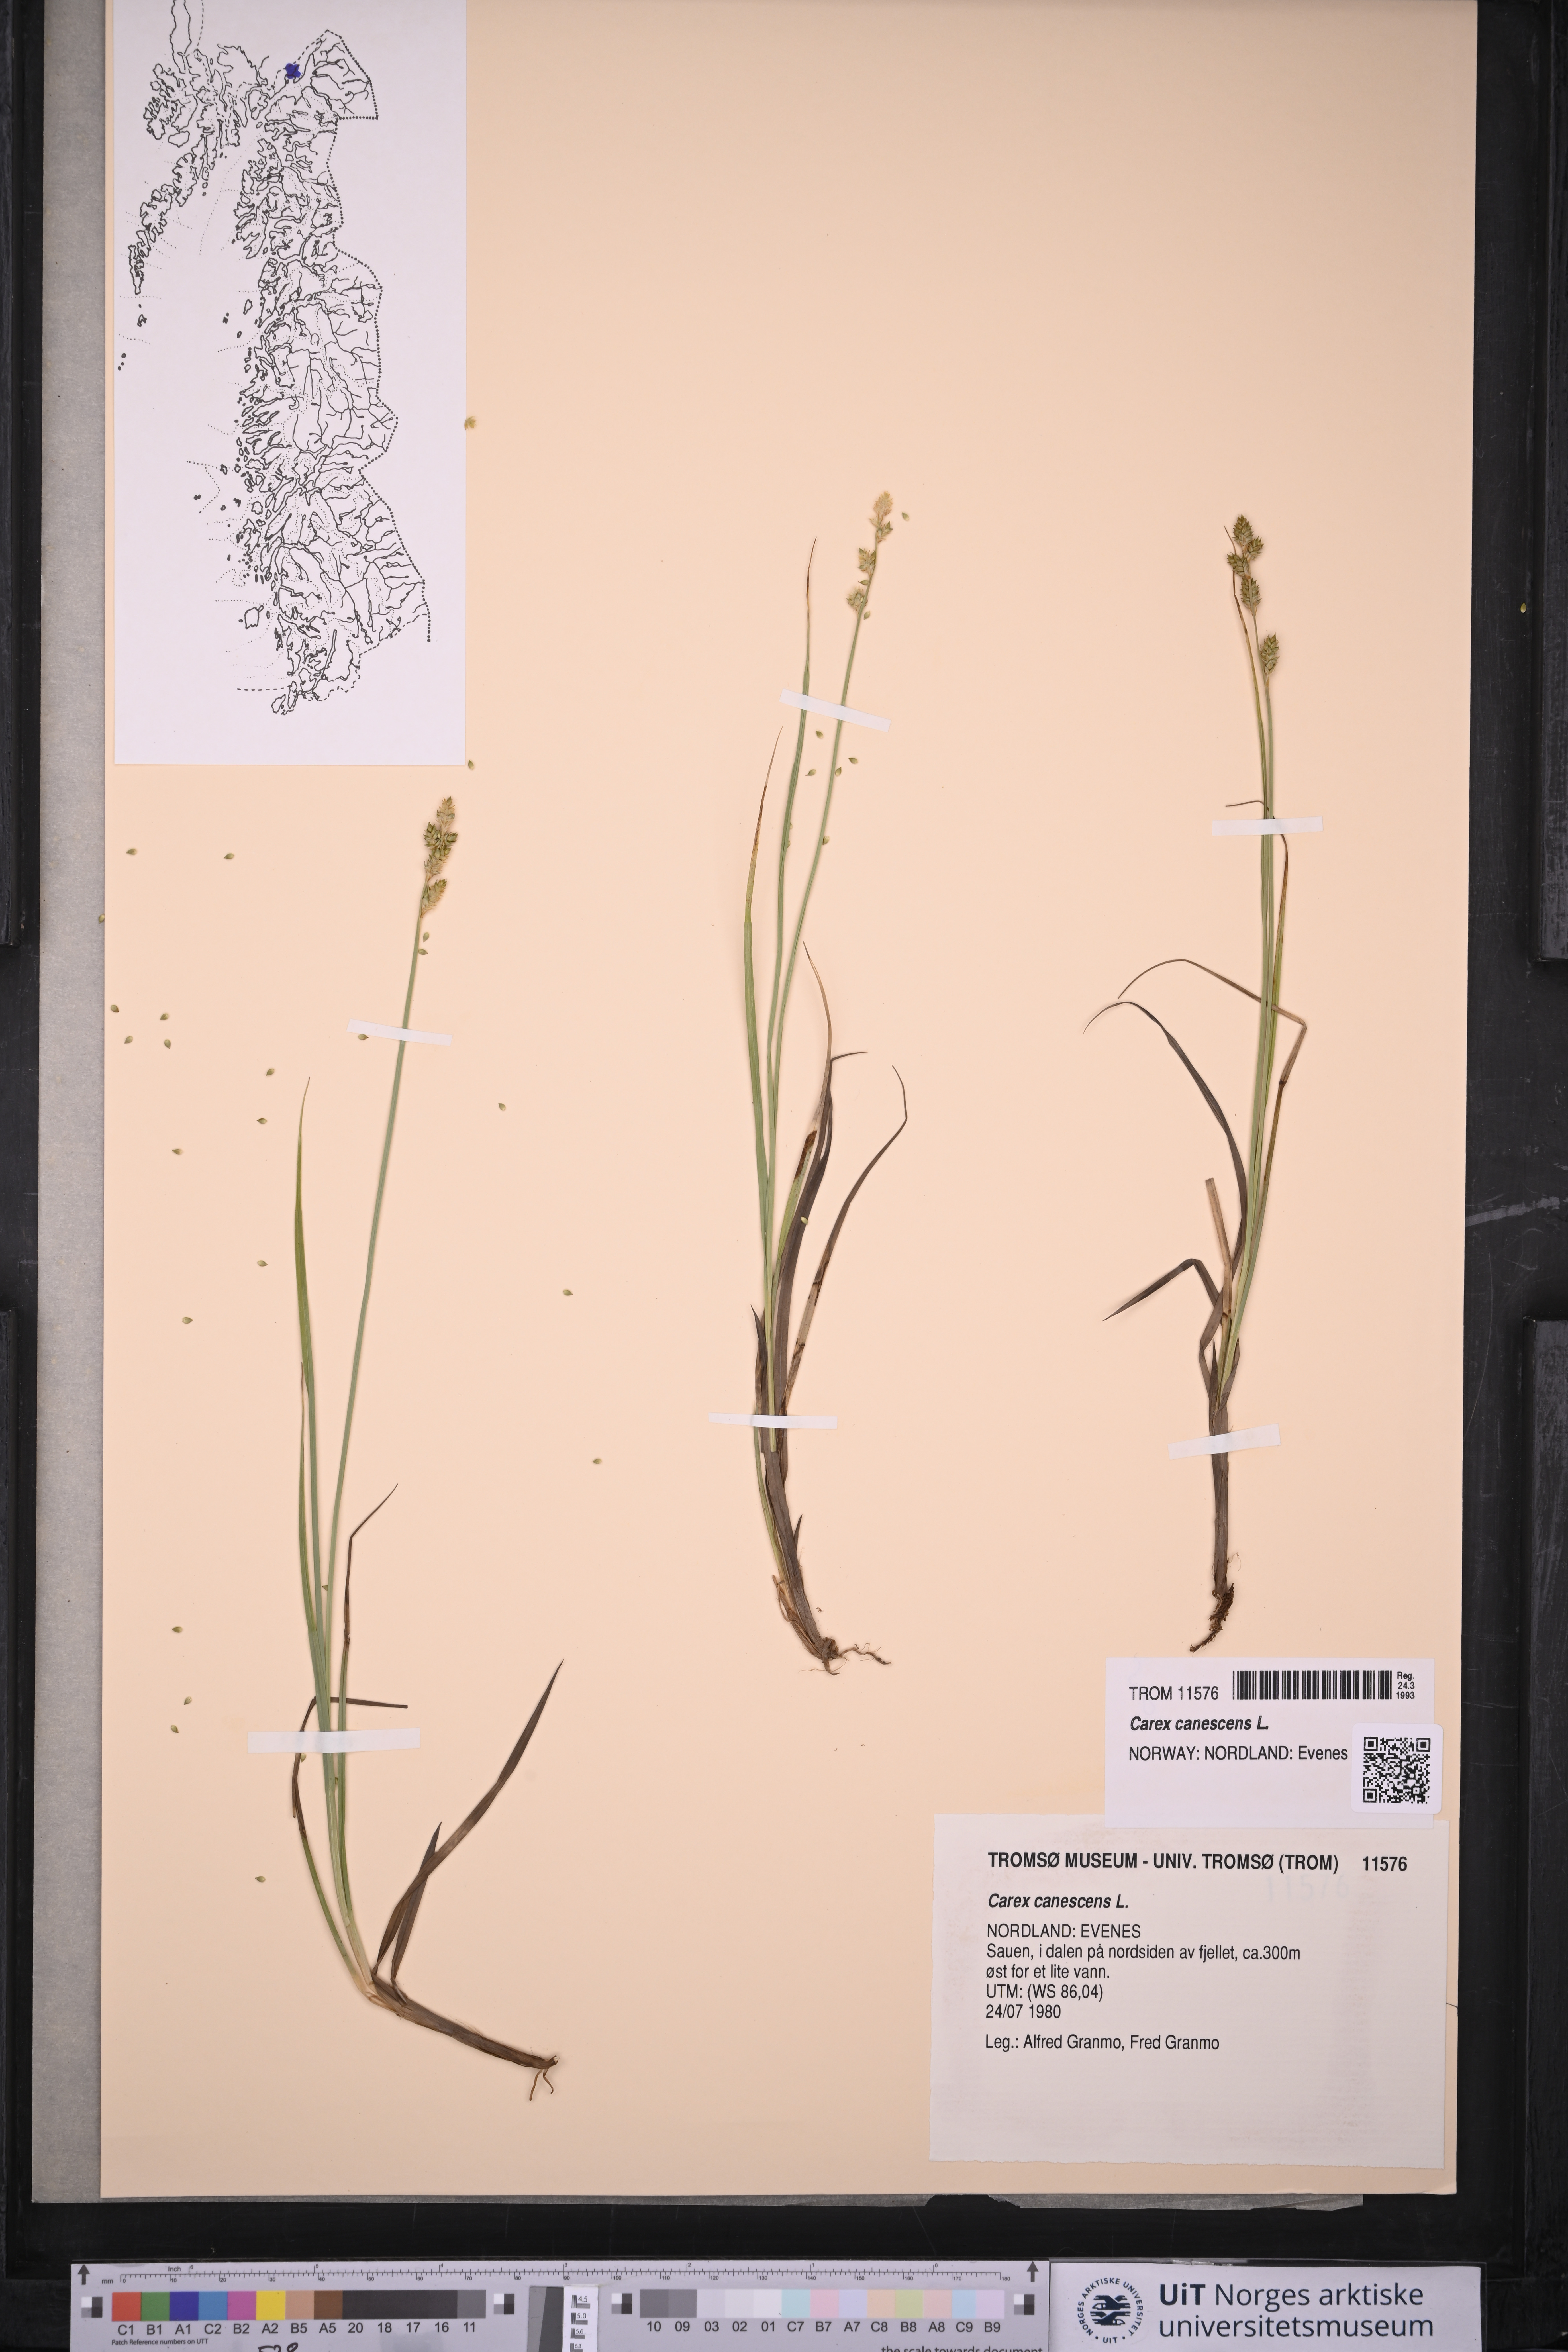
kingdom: Plantae
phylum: Tracheophyta
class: Liliopsida
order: Poales
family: Cyperaceae
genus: Carex
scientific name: Carex canescens
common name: White sedge
